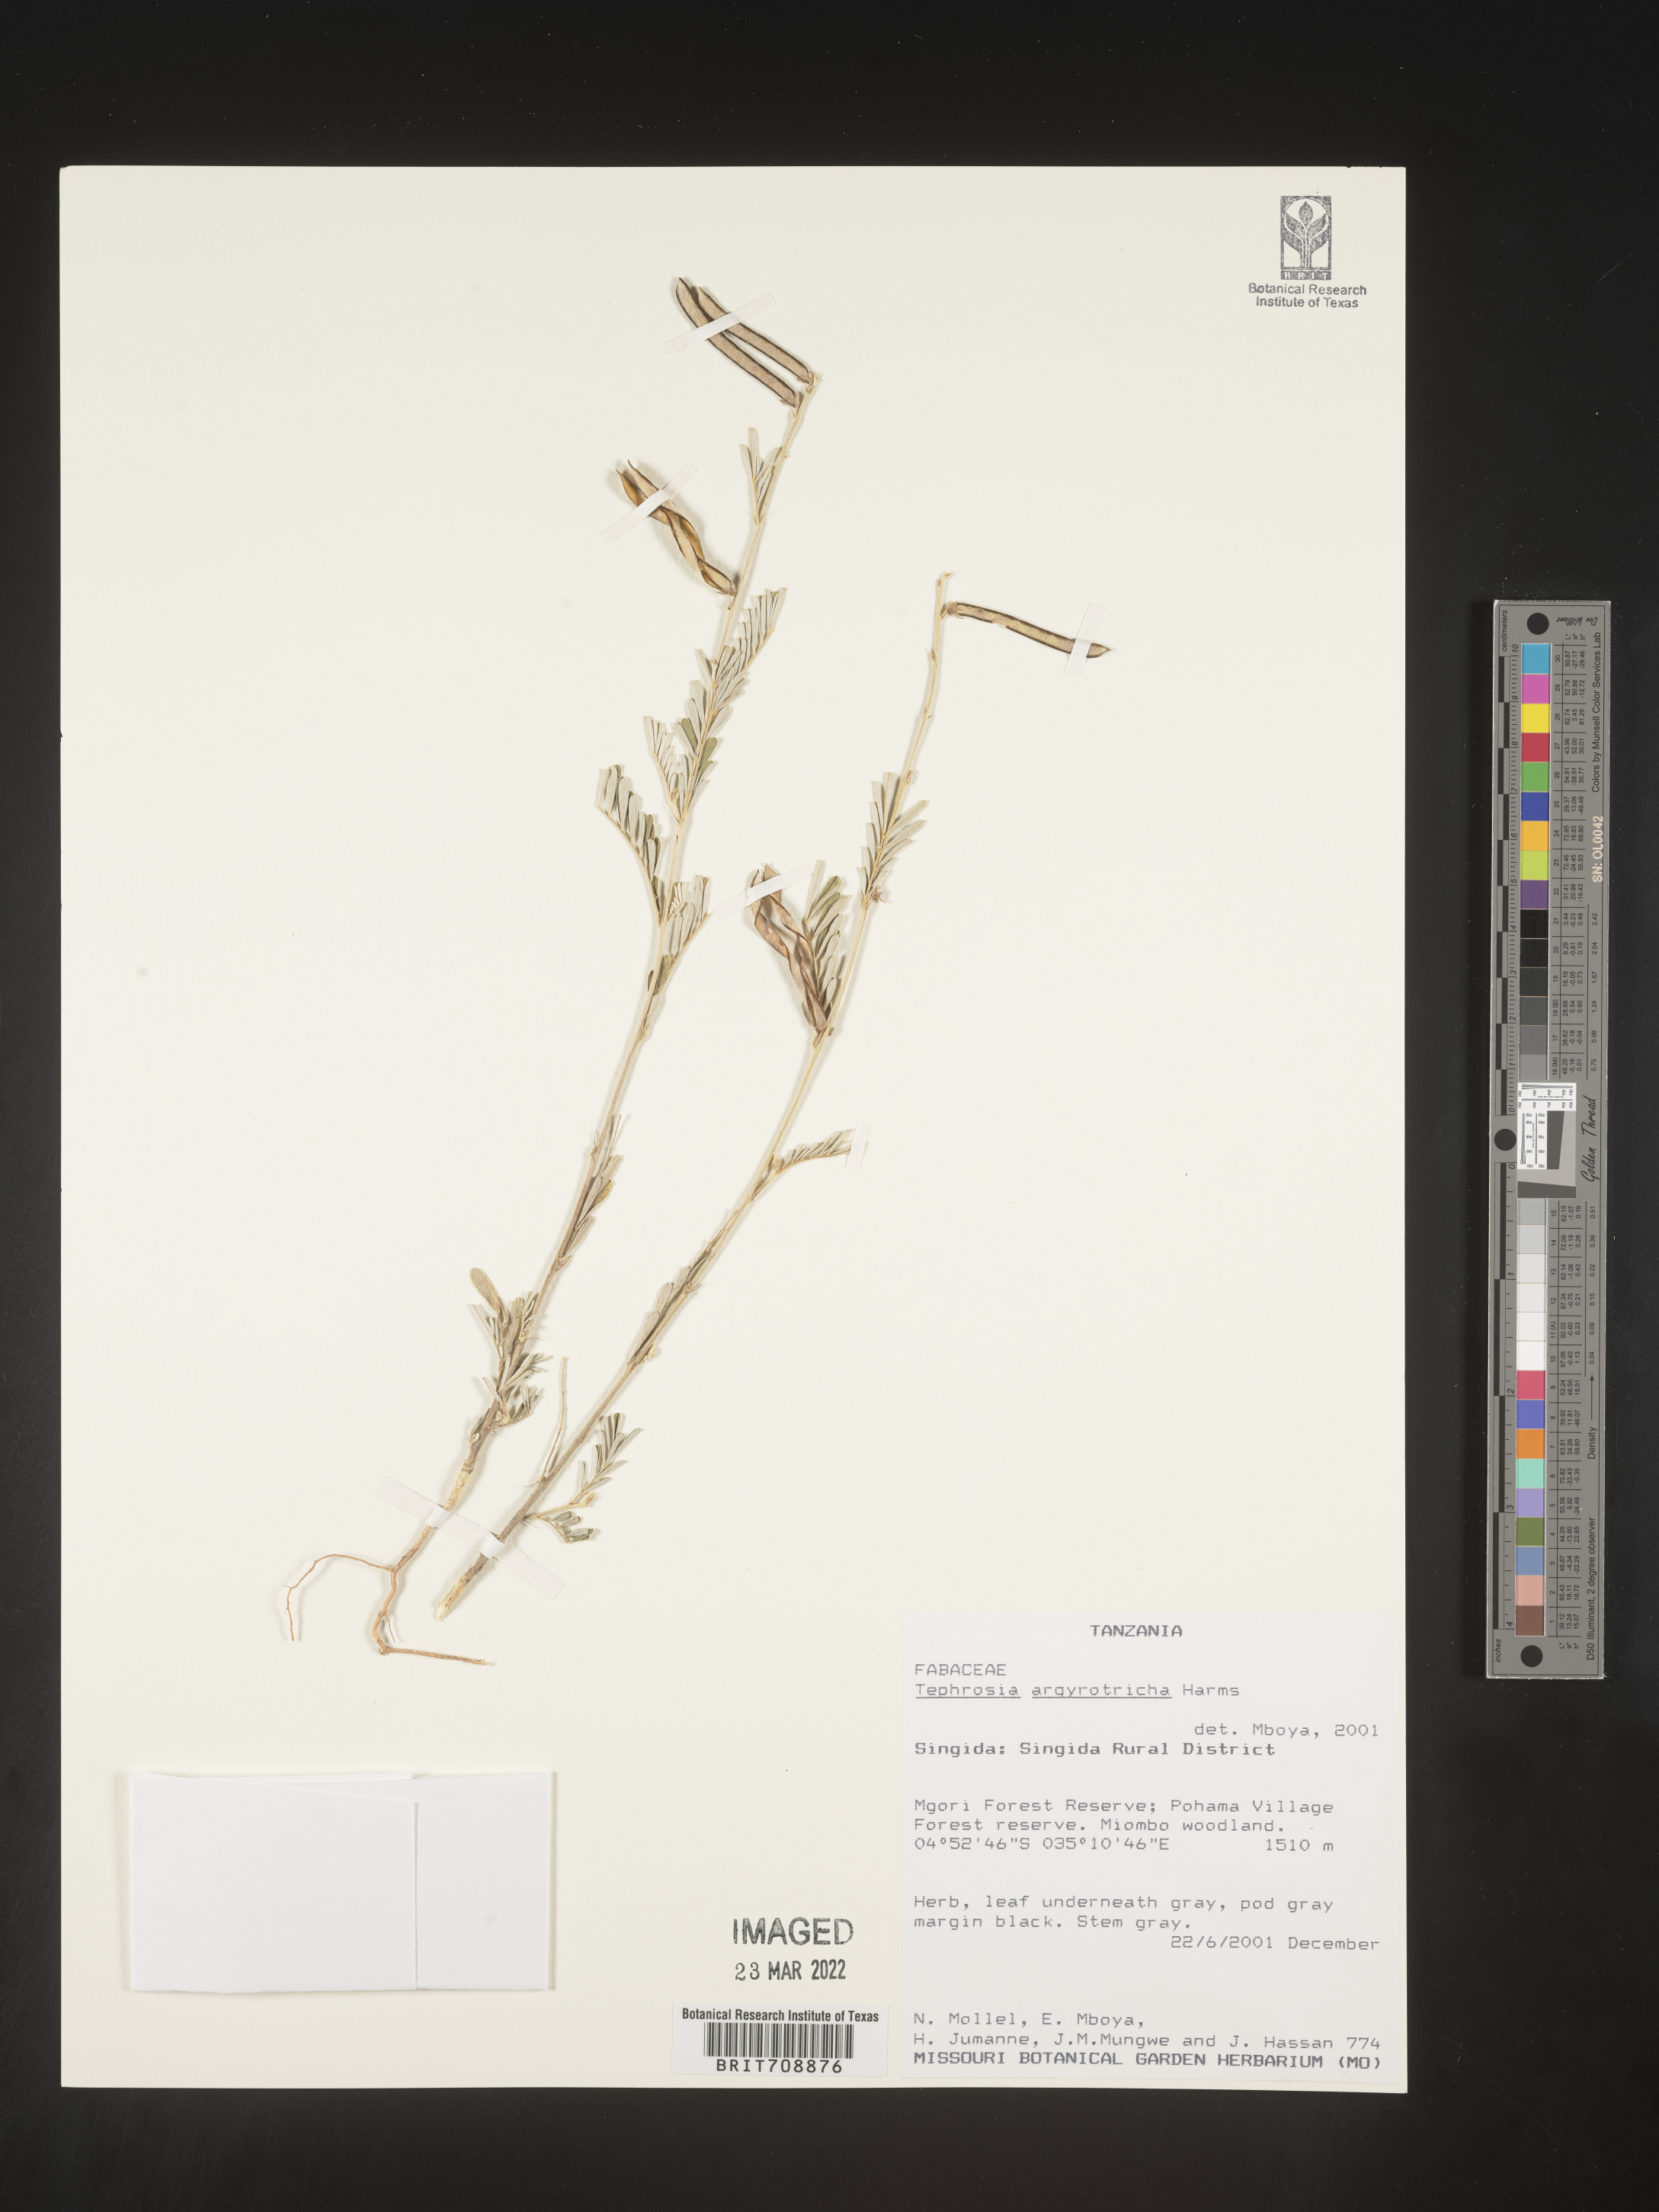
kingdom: Plantae
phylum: Tracheophyta
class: Magnoliopsida
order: Fabales
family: Fabaceae
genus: Tephrosia
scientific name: Tephrosia
